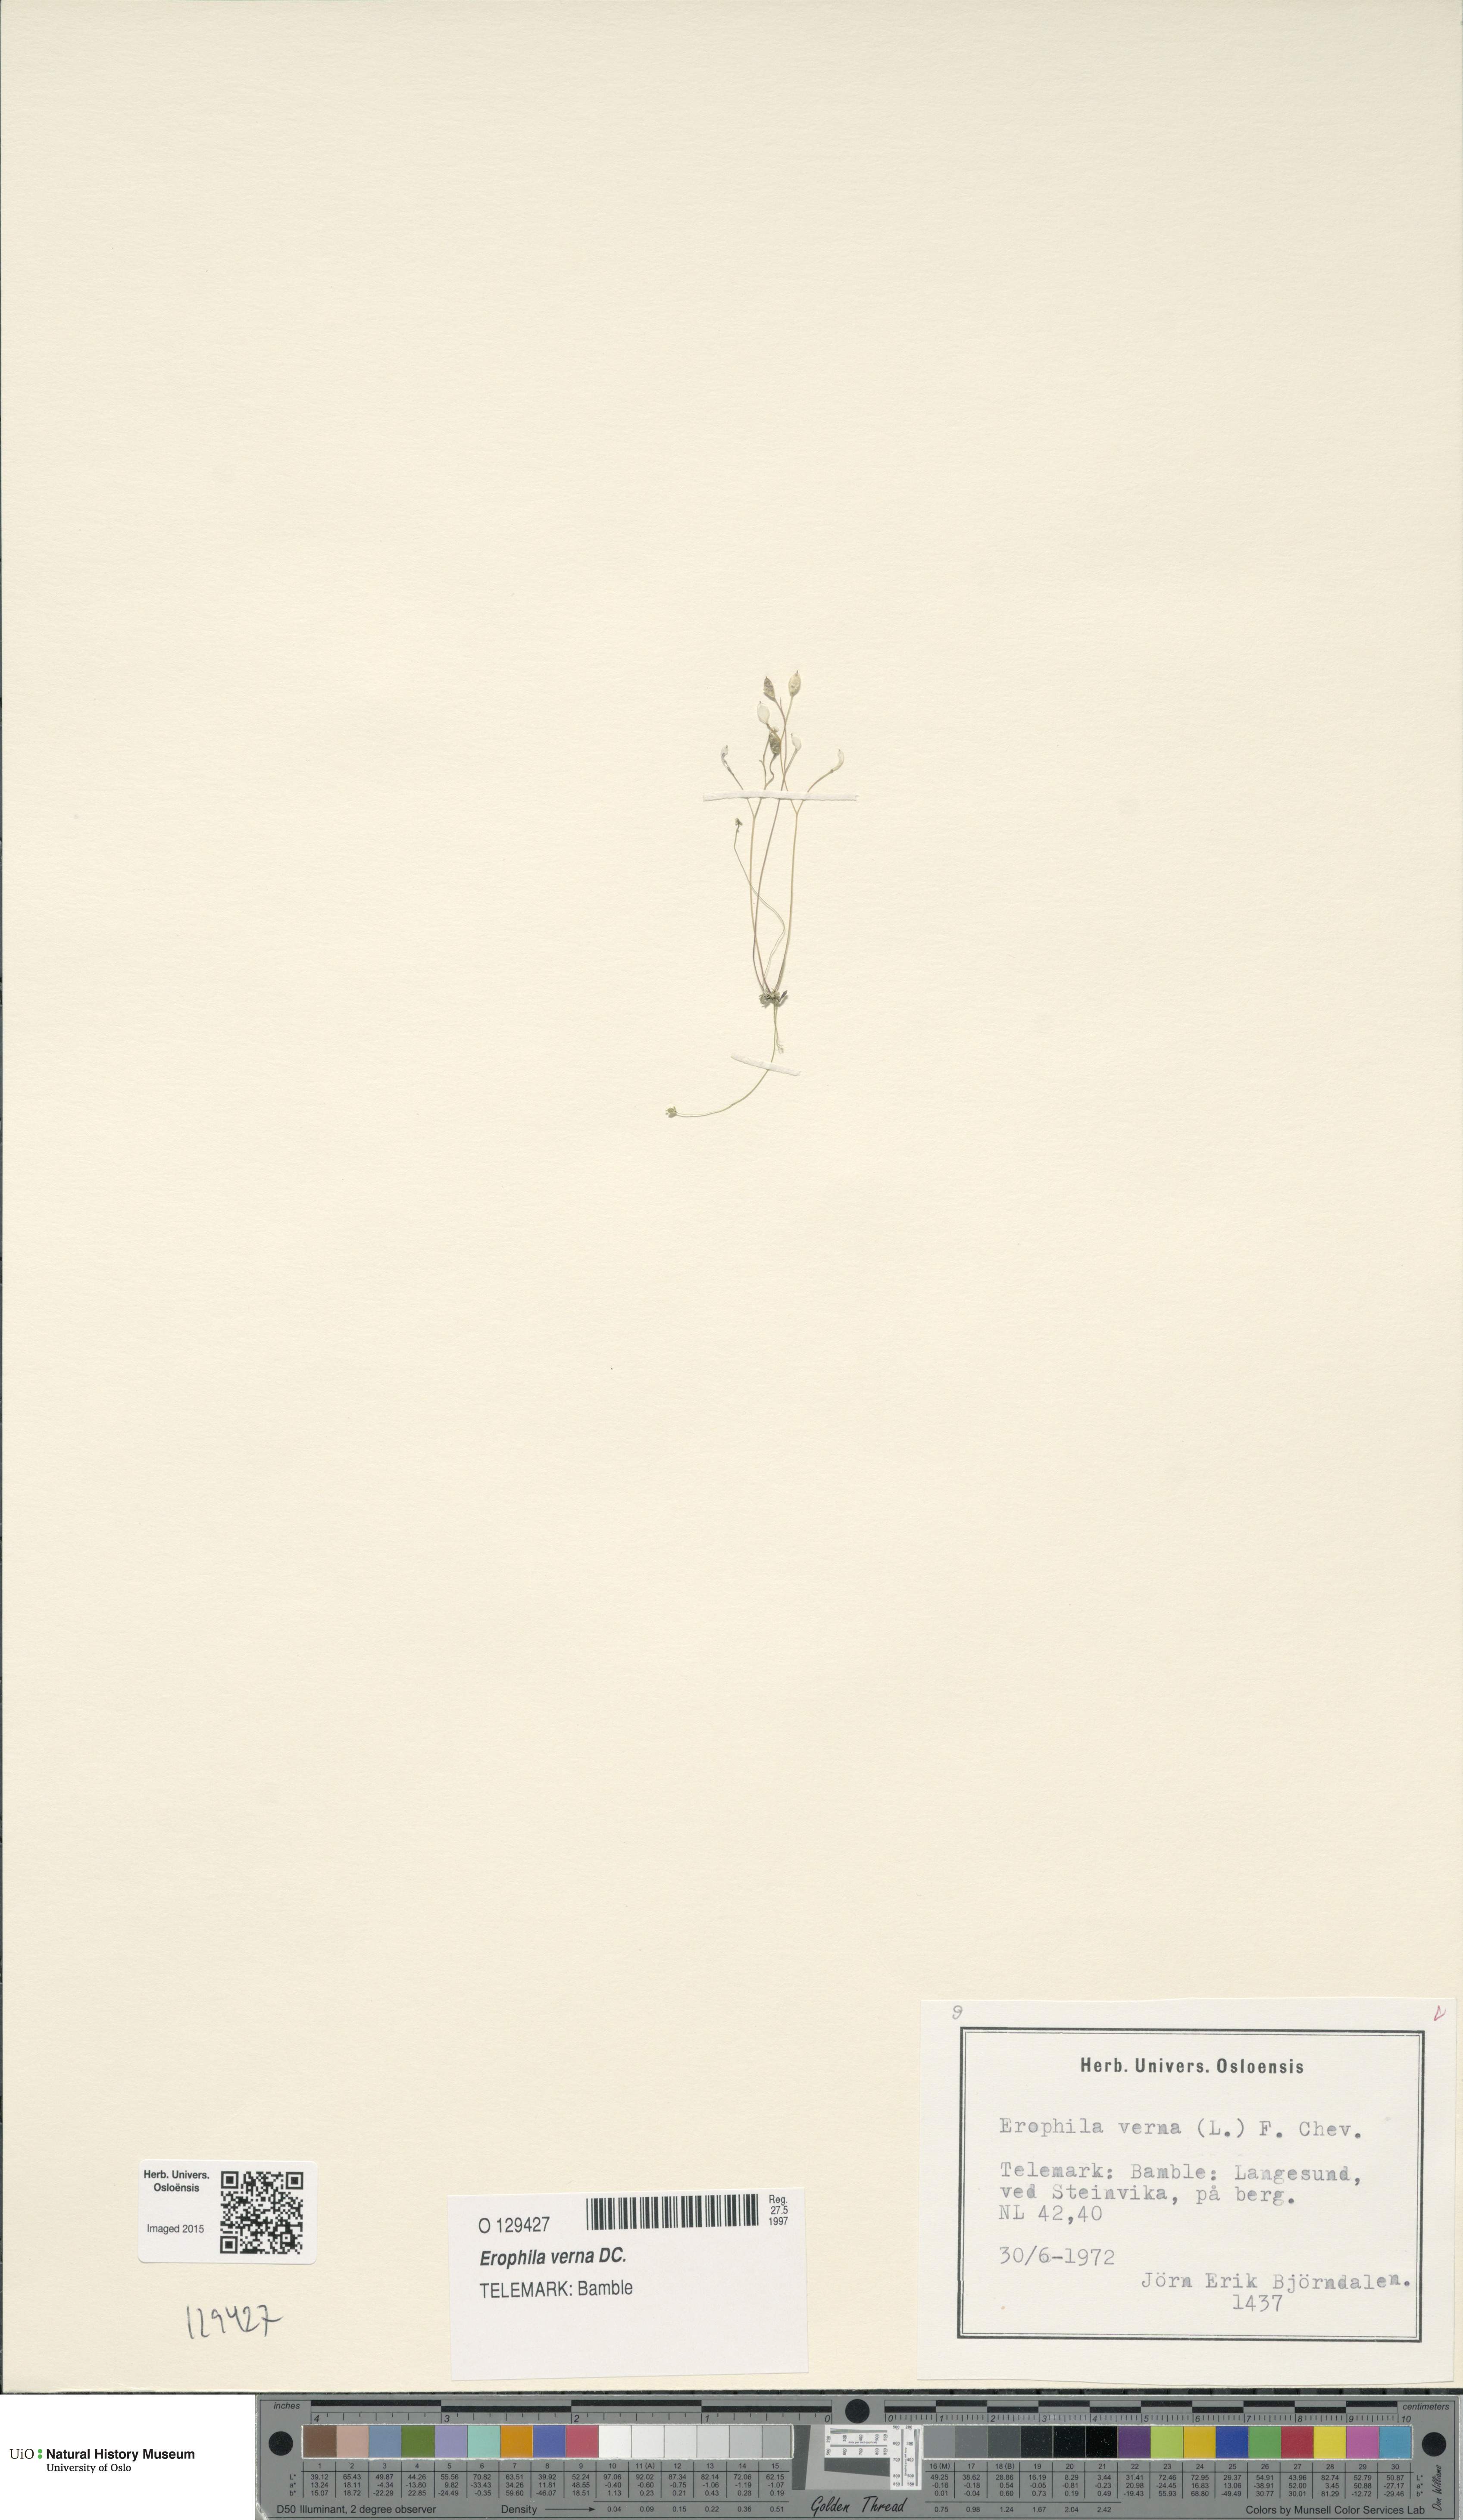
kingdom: Plantae
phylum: Tracheophyta
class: Magnoliopsida
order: Brassicales
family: Brassicaceae
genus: Draba
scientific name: Draba verna
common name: Spring draba
